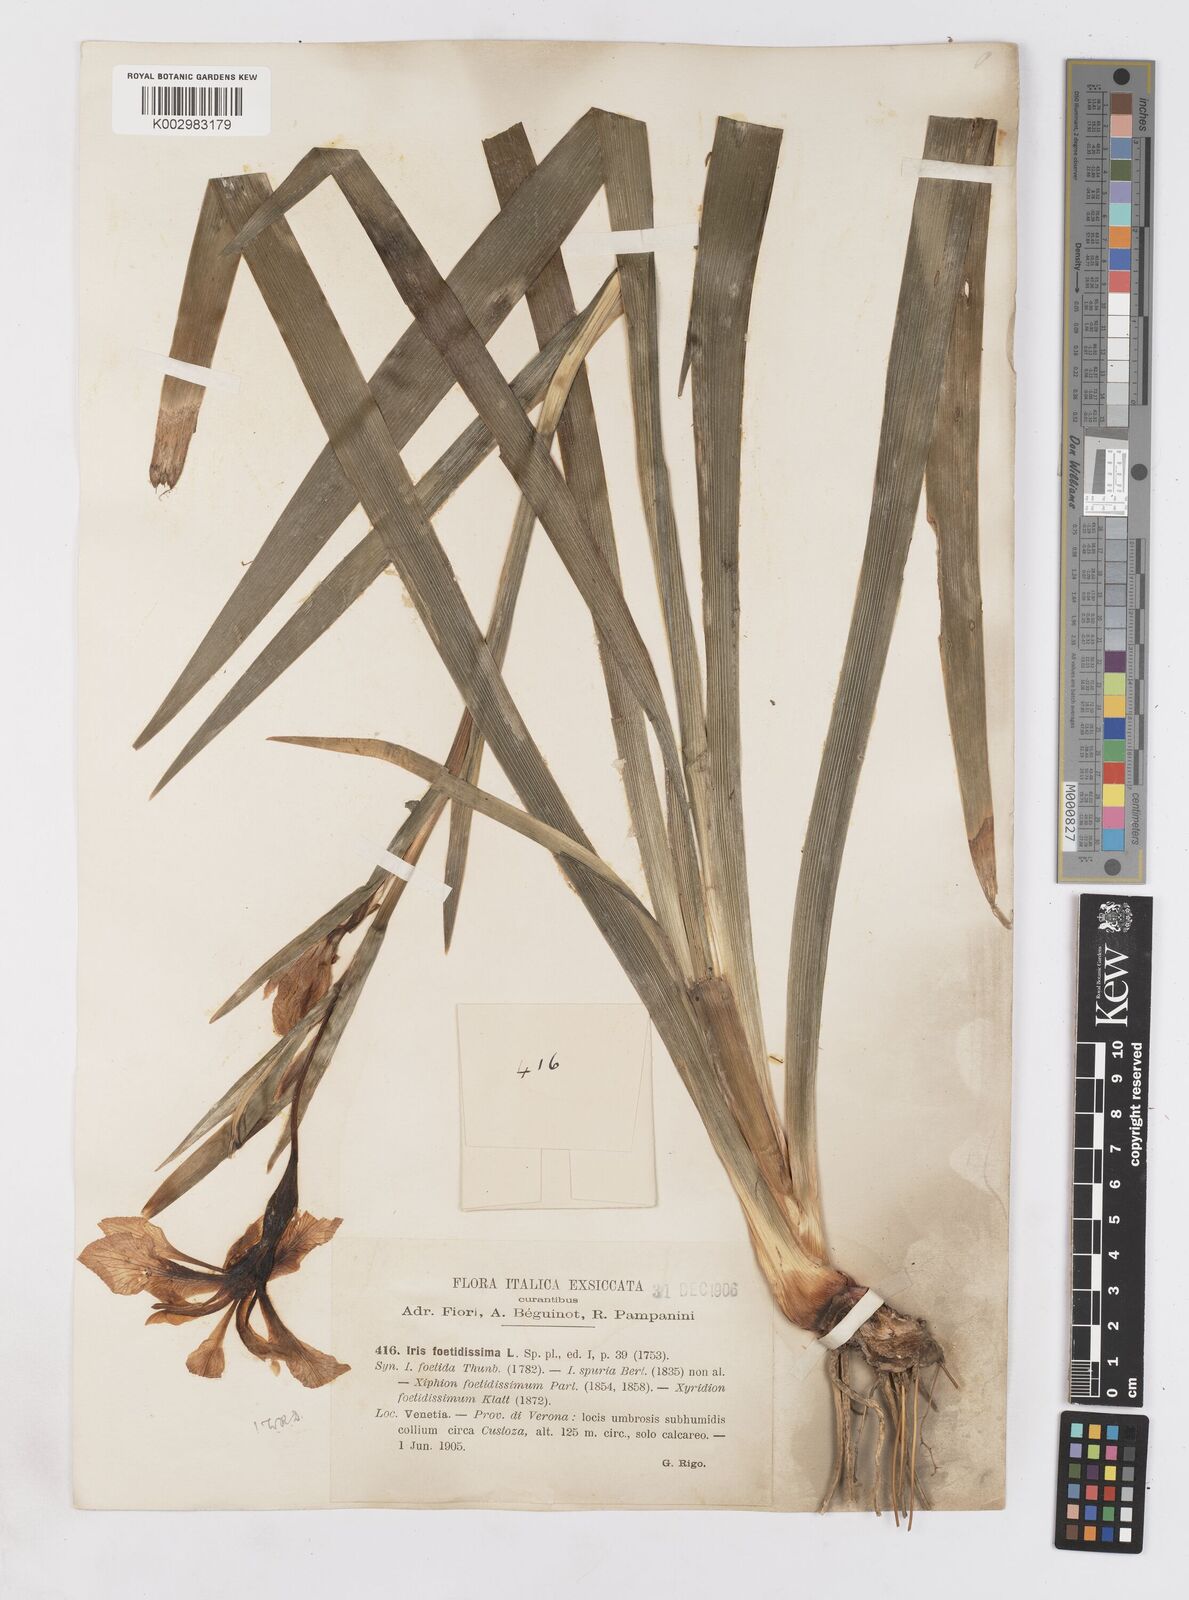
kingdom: Plantae
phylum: Tracheophyta
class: Liliopsida
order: Asparagales
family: Iridaceae
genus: Iris
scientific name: Iris foetidissima
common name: Stinking iris
